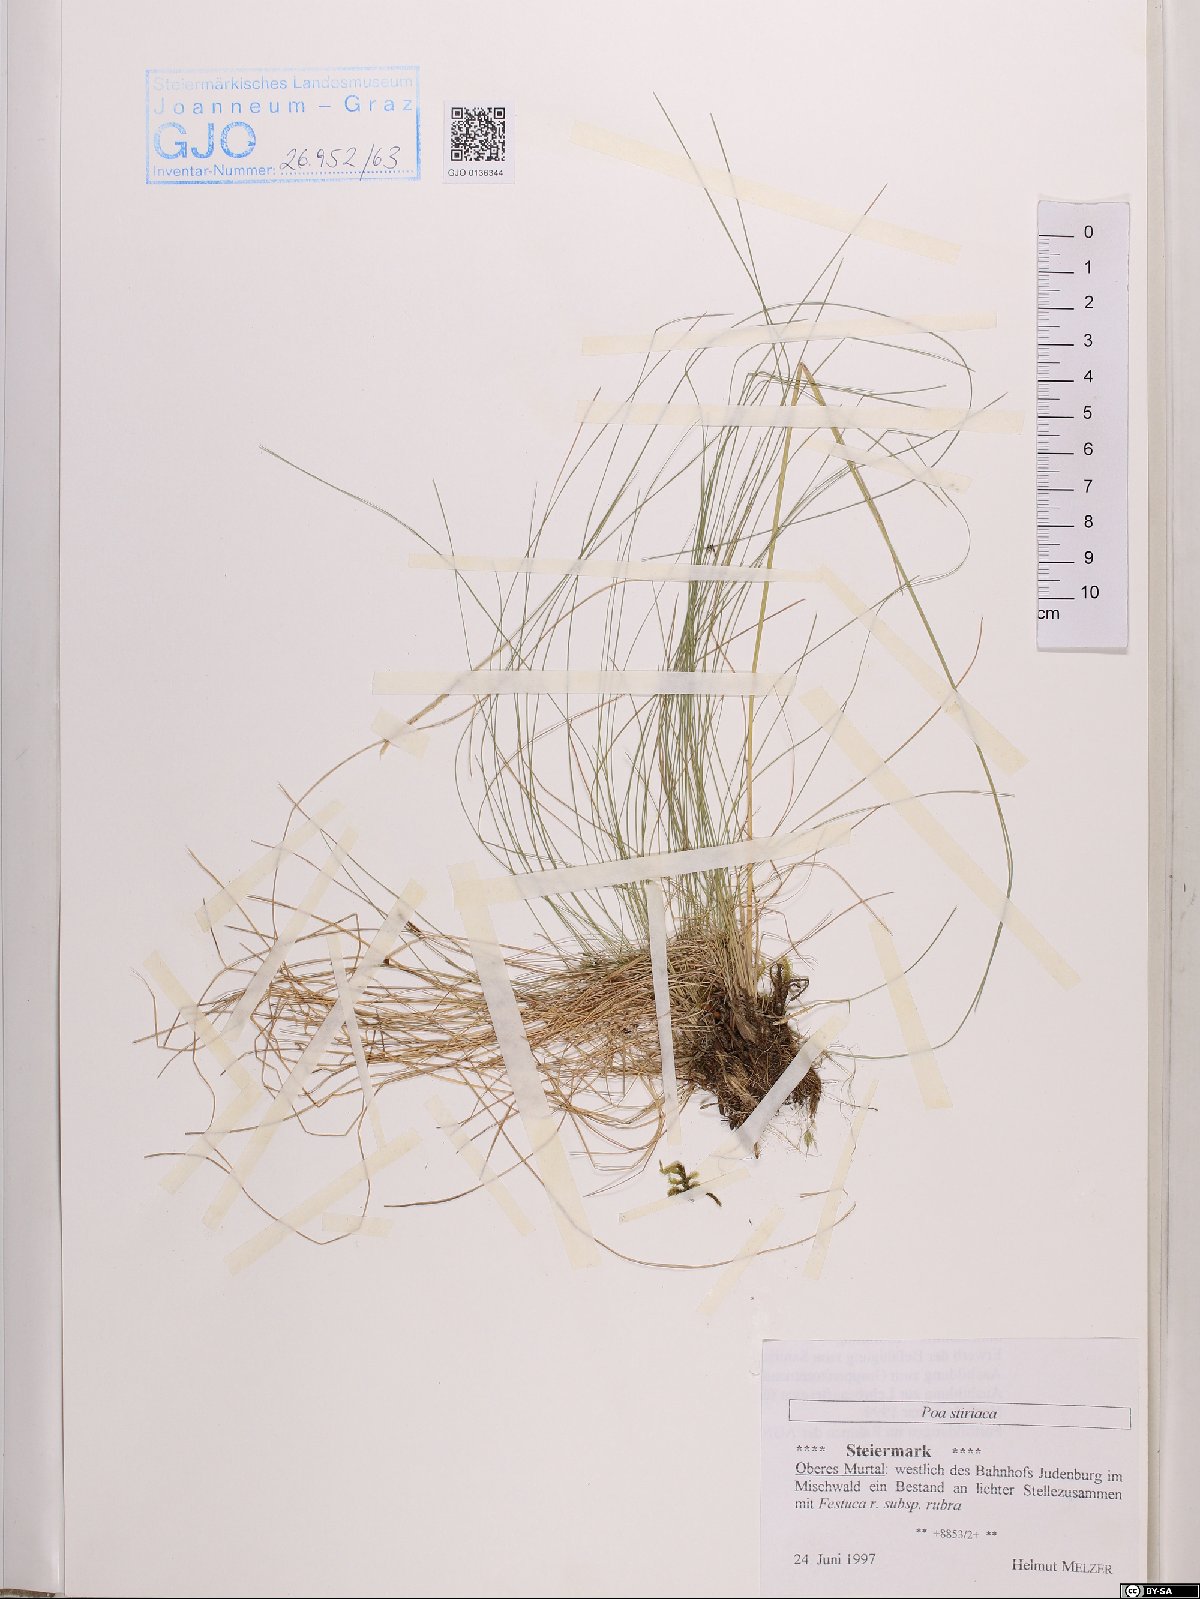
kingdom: Plantae
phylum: Tracheophyta
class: Liliopsida
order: Poales
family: Poaceae
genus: Poa
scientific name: Poa stiriaca
